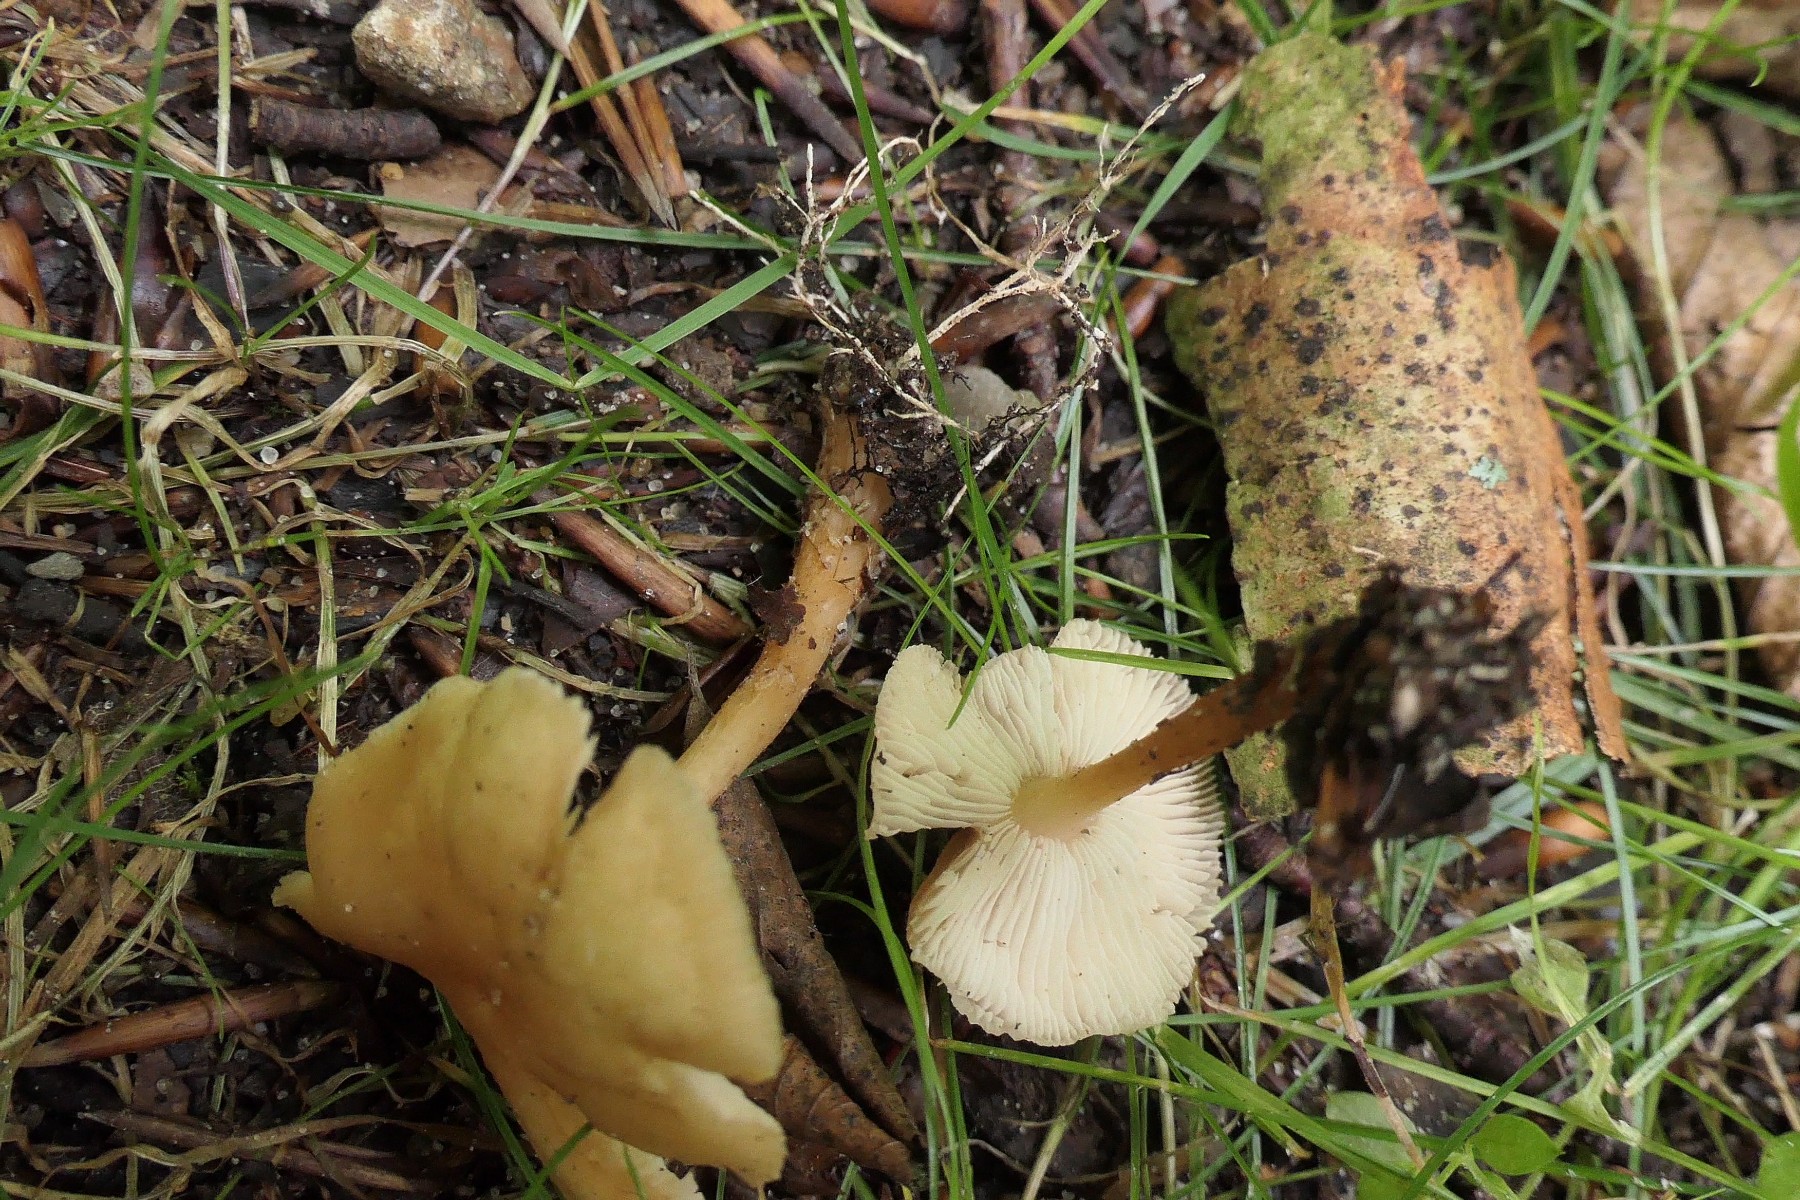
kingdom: Fungi
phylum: Basidiomycota
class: Agaricomycetes
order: Agaricales
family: Omphalotaceae
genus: Gymnopus
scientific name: Gymnopus dryophilus
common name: løv-fladhat
